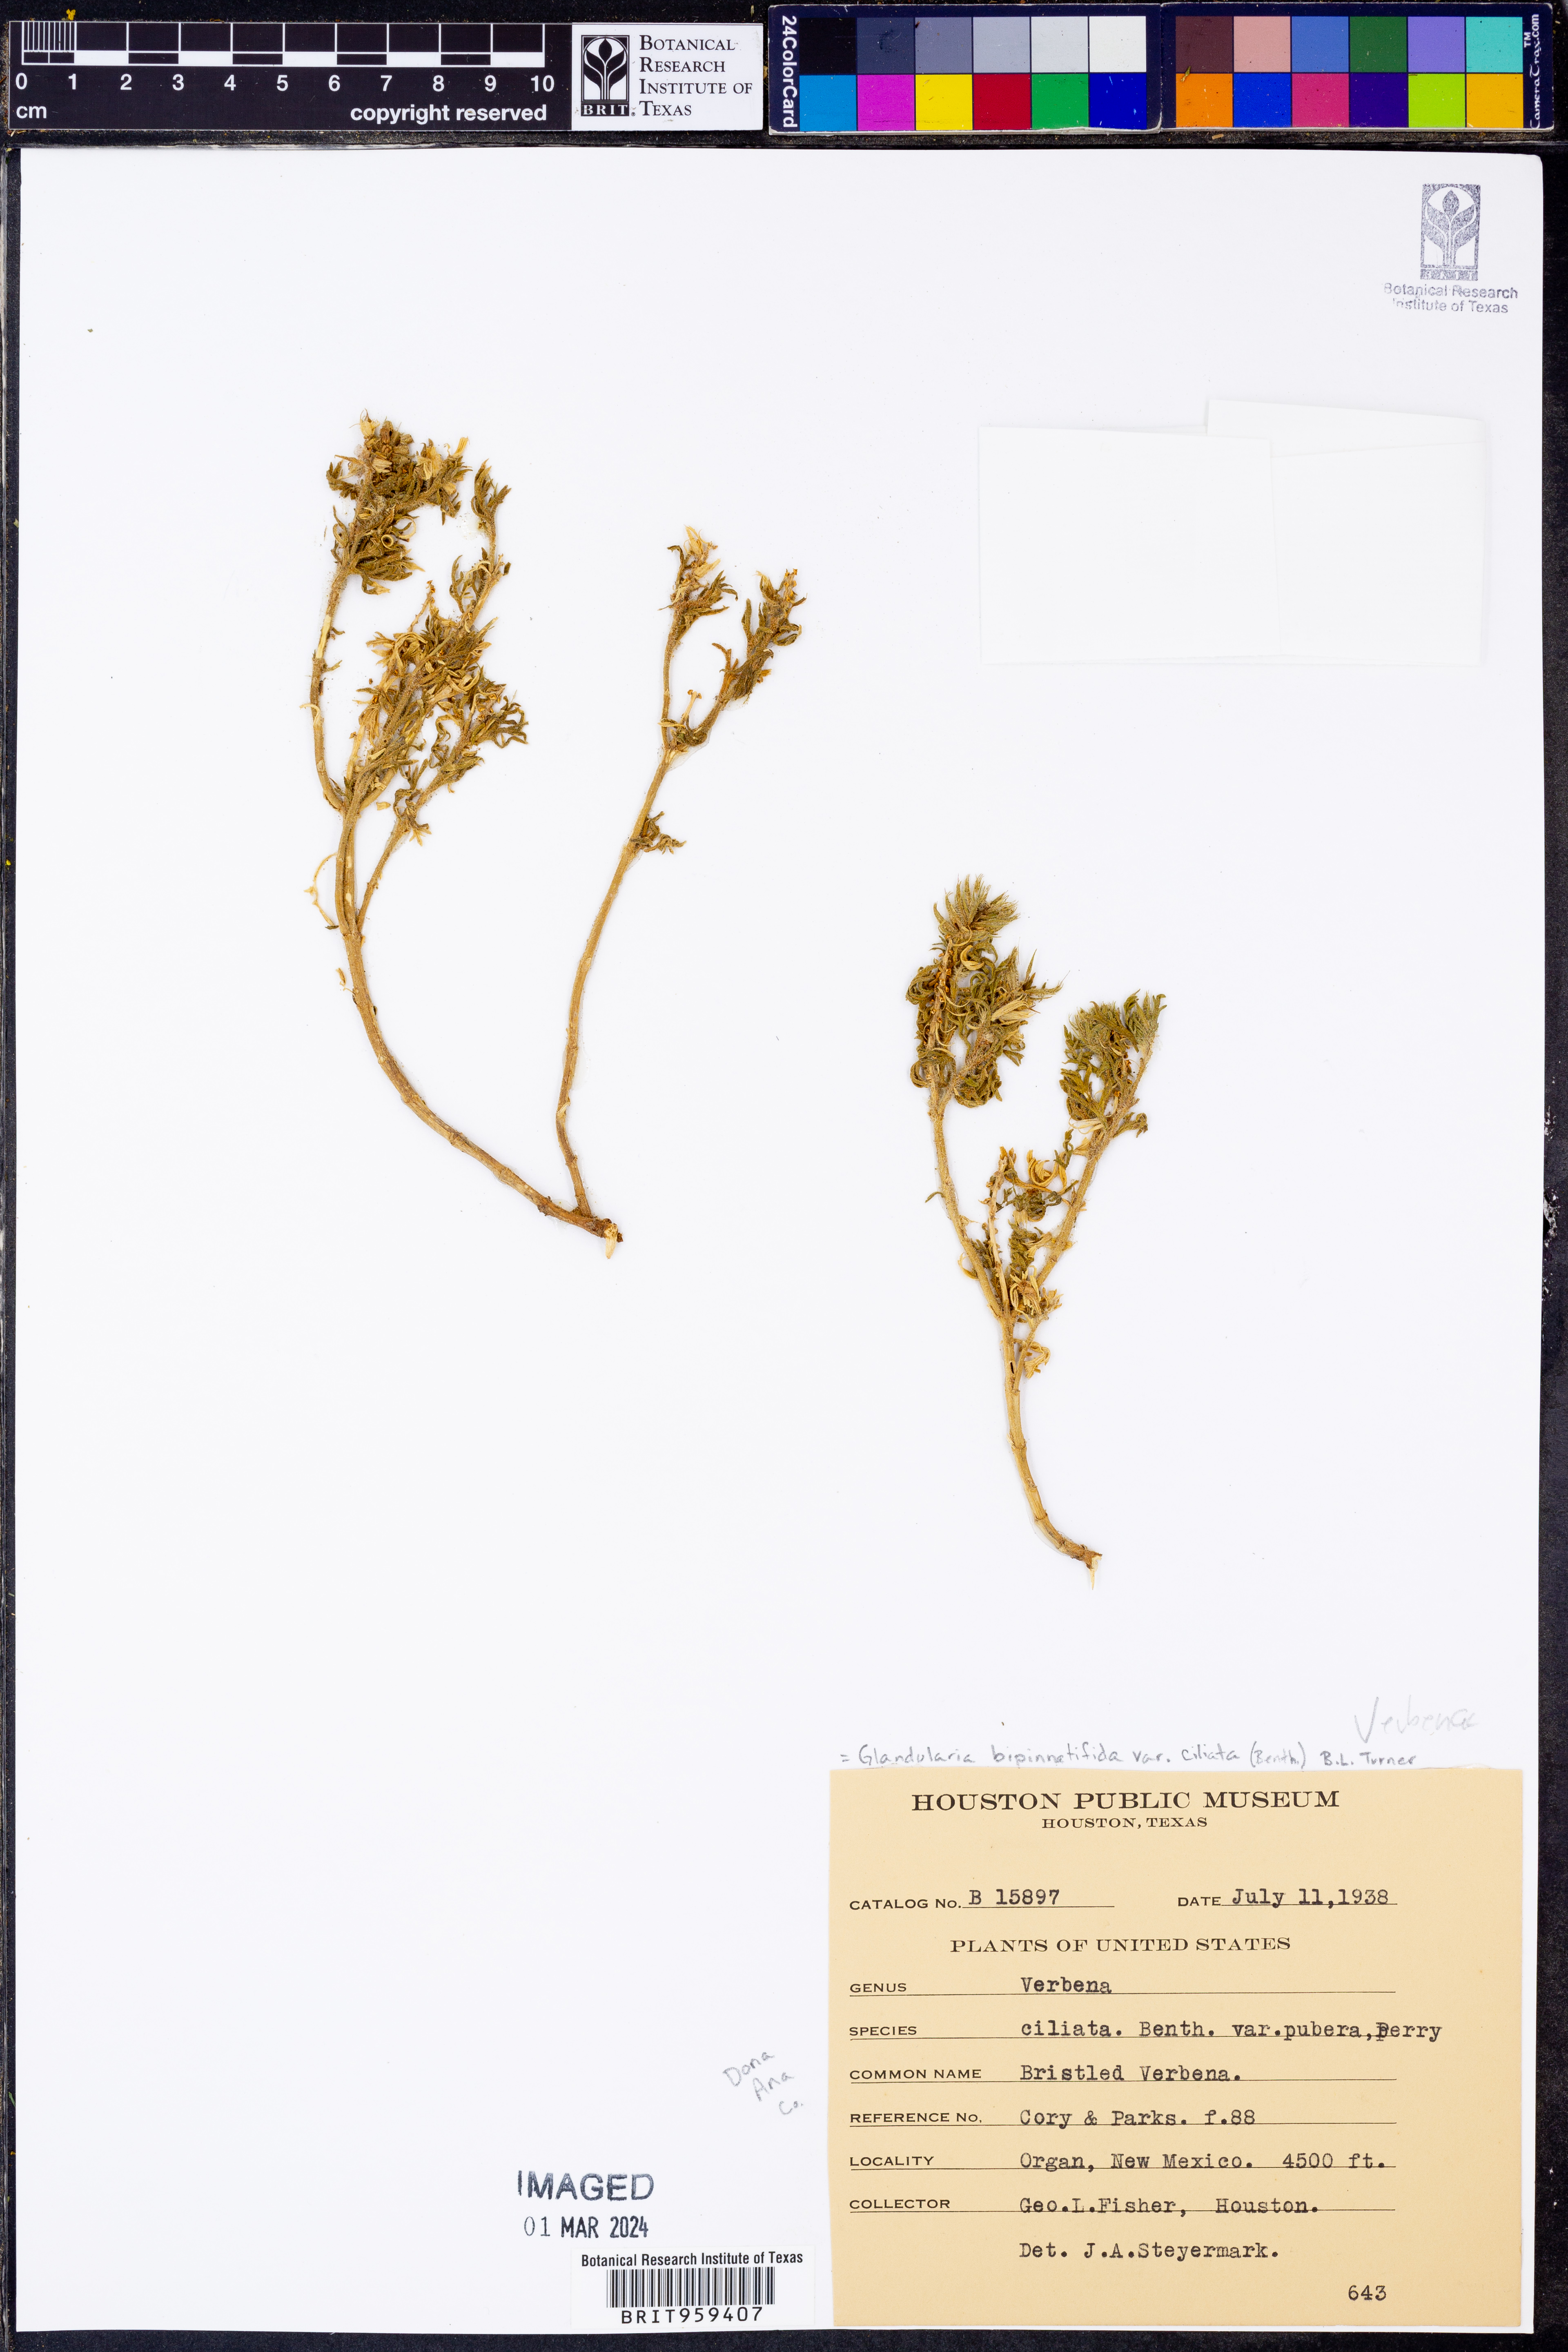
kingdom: Plantae
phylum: Tracheophyta
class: Magnoliopsida
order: Lamiales
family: Verbenaceae
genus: Verbena
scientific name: Verbena bipinnatifida
